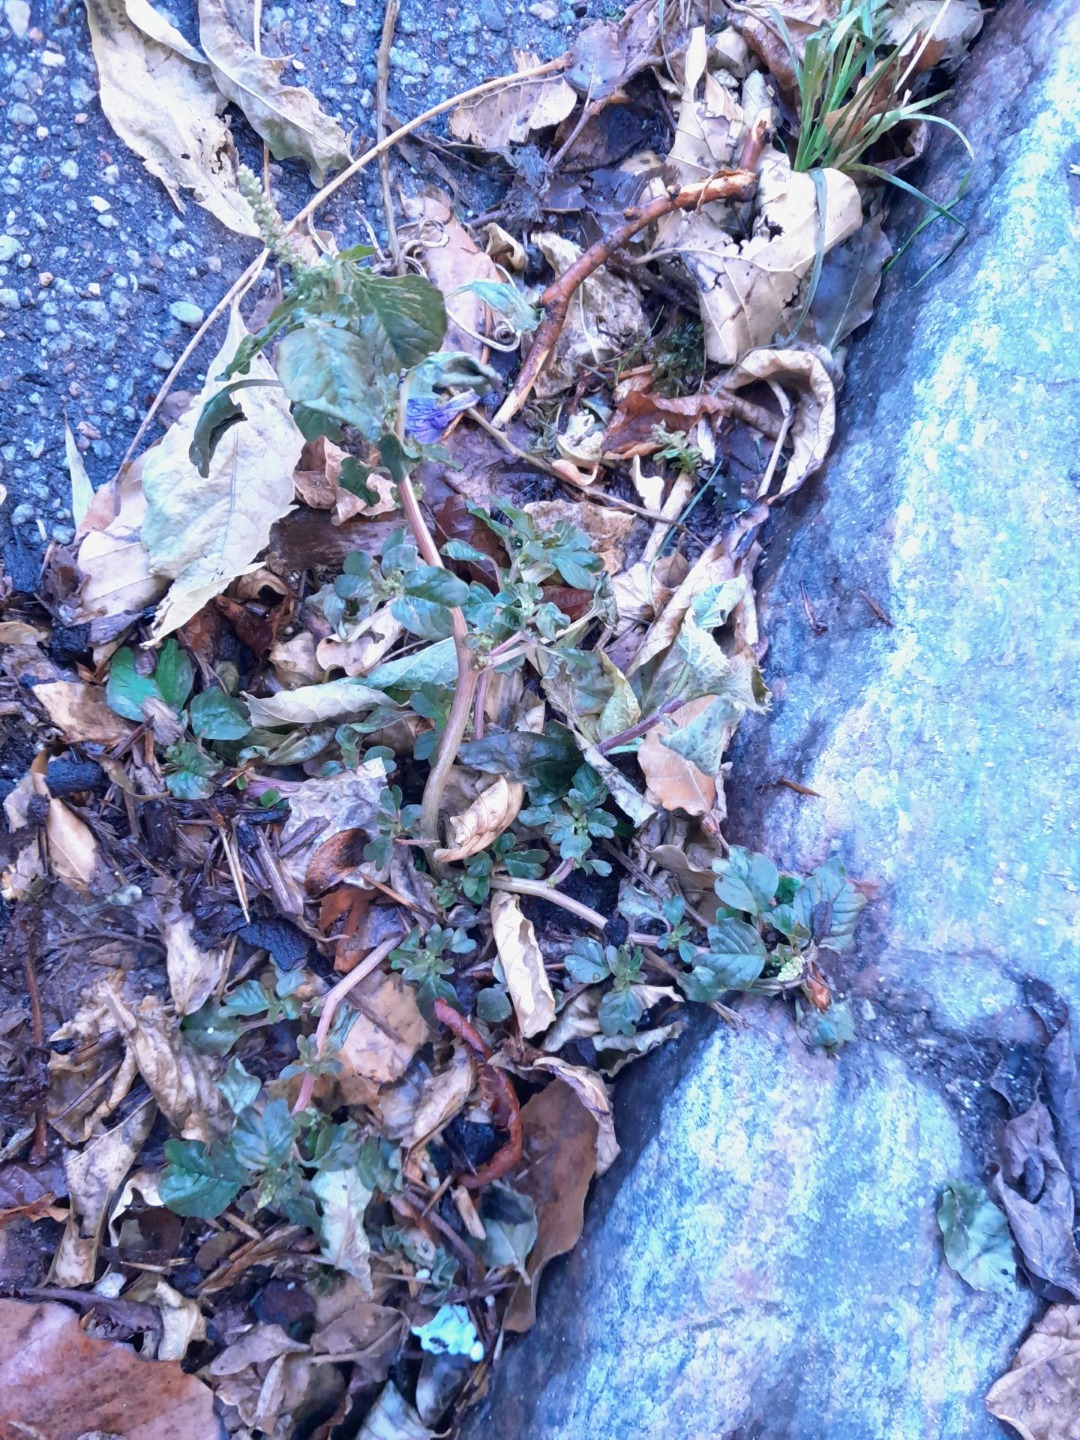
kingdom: Plantae
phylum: Tracheophyta
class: Magnoliopsida
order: Caryophyllales
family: Amaranthaceae
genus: Amaranthus
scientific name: Amaranthus blitum
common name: Plet-amarant
